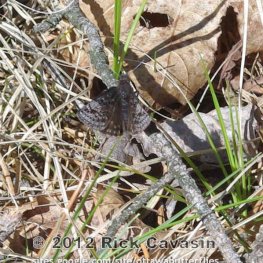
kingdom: Animalia
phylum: Arthropoda
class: Insecta
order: Lepidoptera
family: Hesperiidae
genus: Erynnis
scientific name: Erynnis icelus
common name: Dreamy Duskywing
